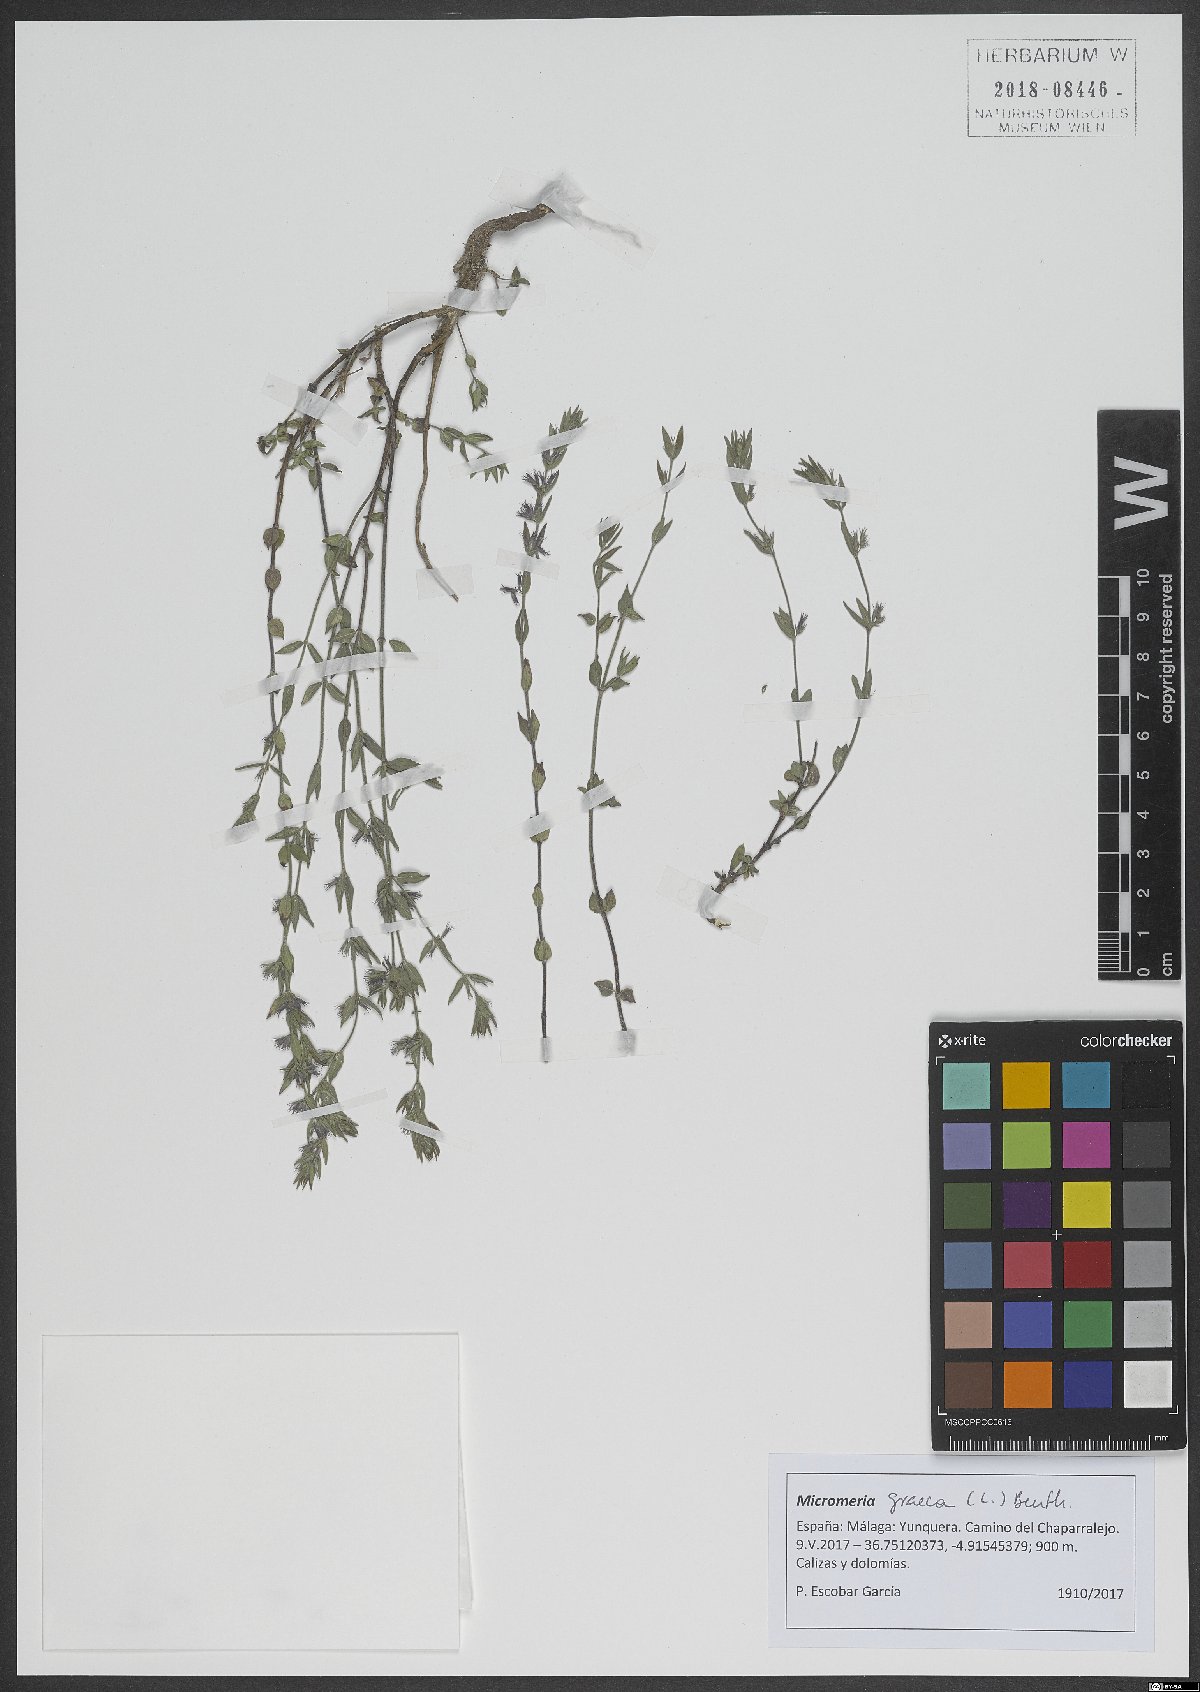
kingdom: Plantae
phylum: Tracheophyta
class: Magnoliopsida
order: Lamiales
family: Lamiaceae
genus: Micromeria
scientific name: Micromeria graeca
